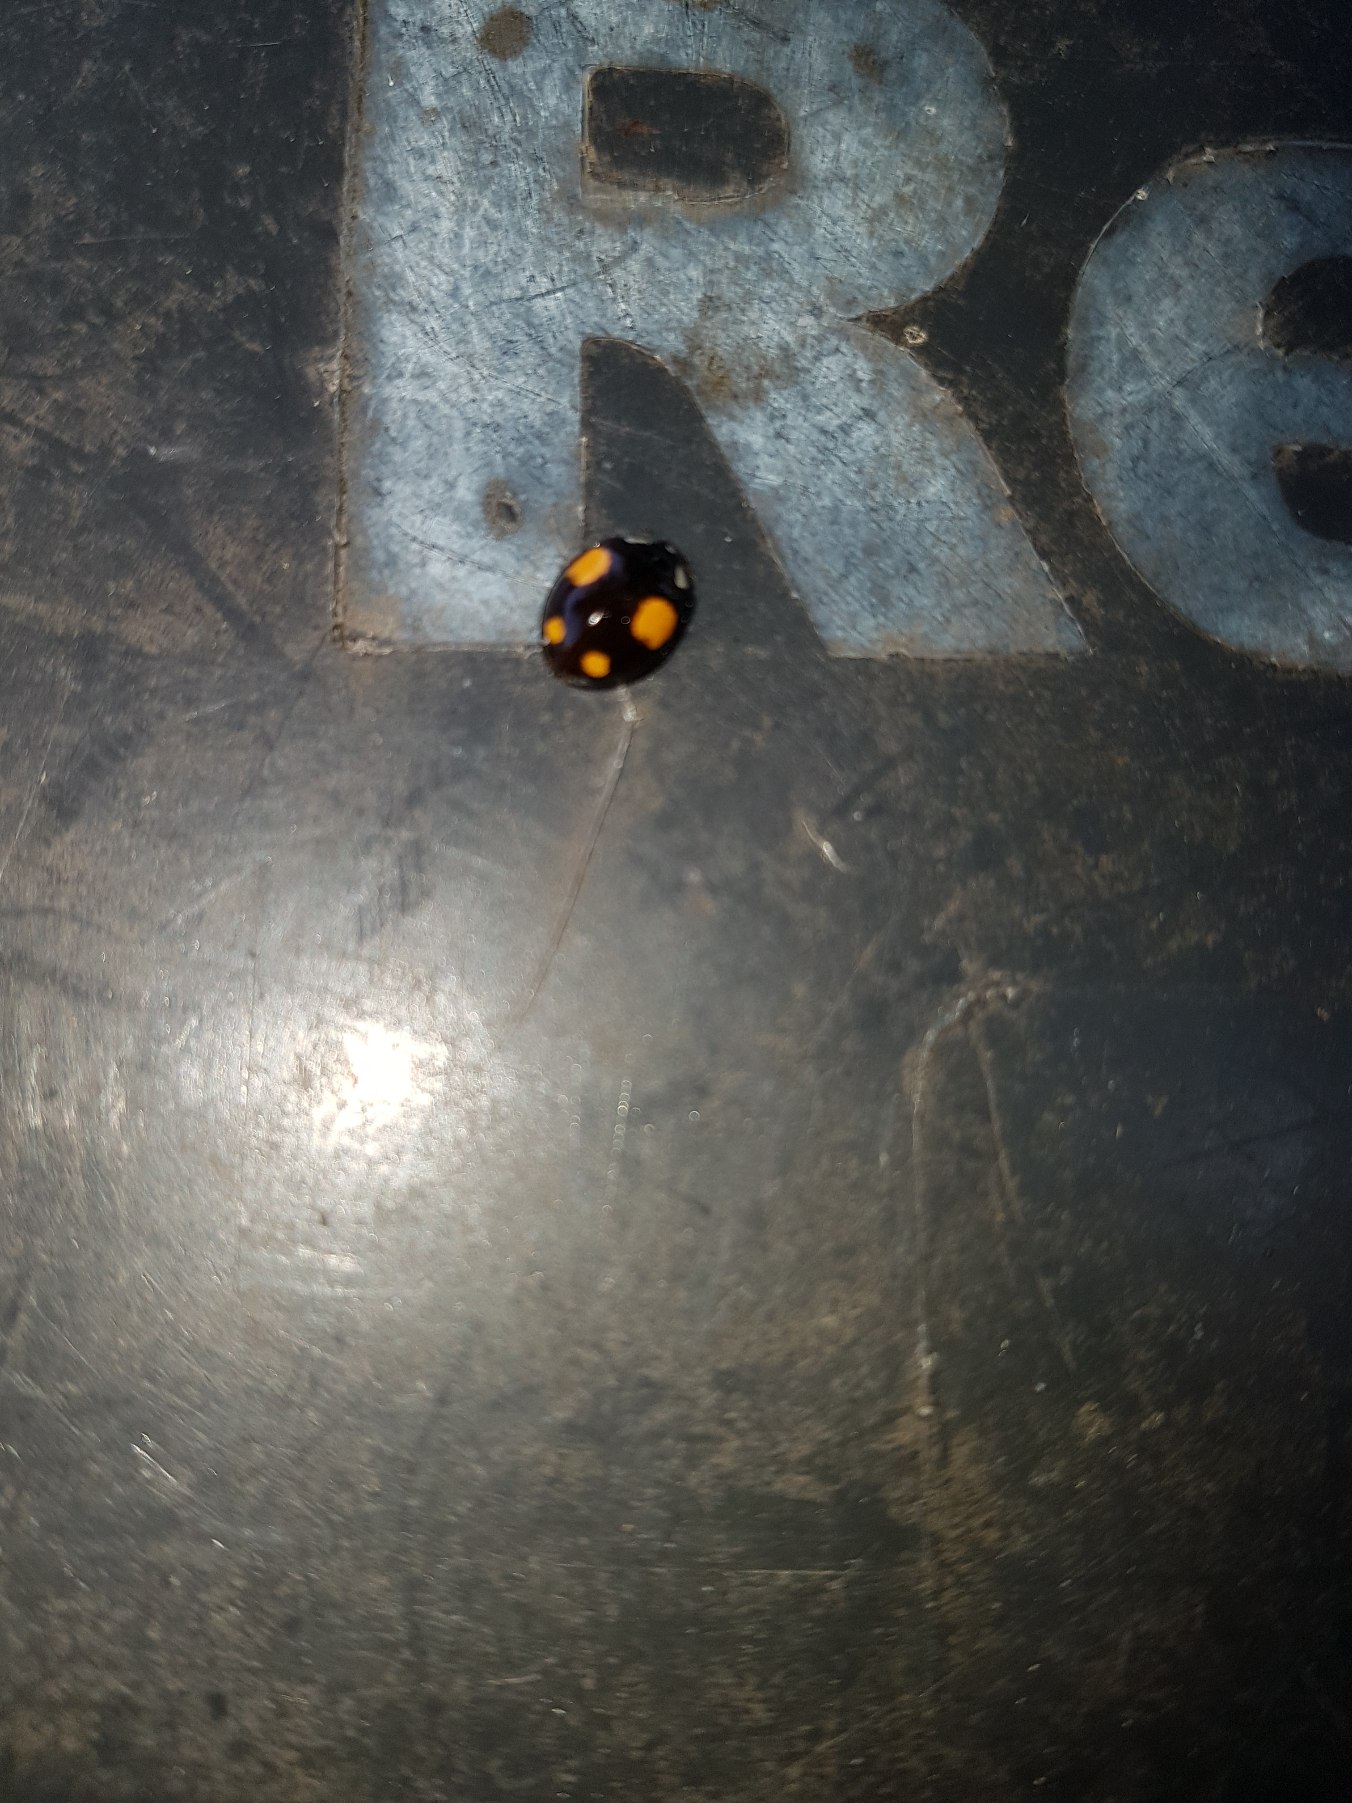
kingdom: Animalia
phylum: Arthropoda
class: Insecta
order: Coleoptera
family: Coccinellidae
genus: Harmonia
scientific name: Harmonia axyridis
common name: Harlekinmariehøne
